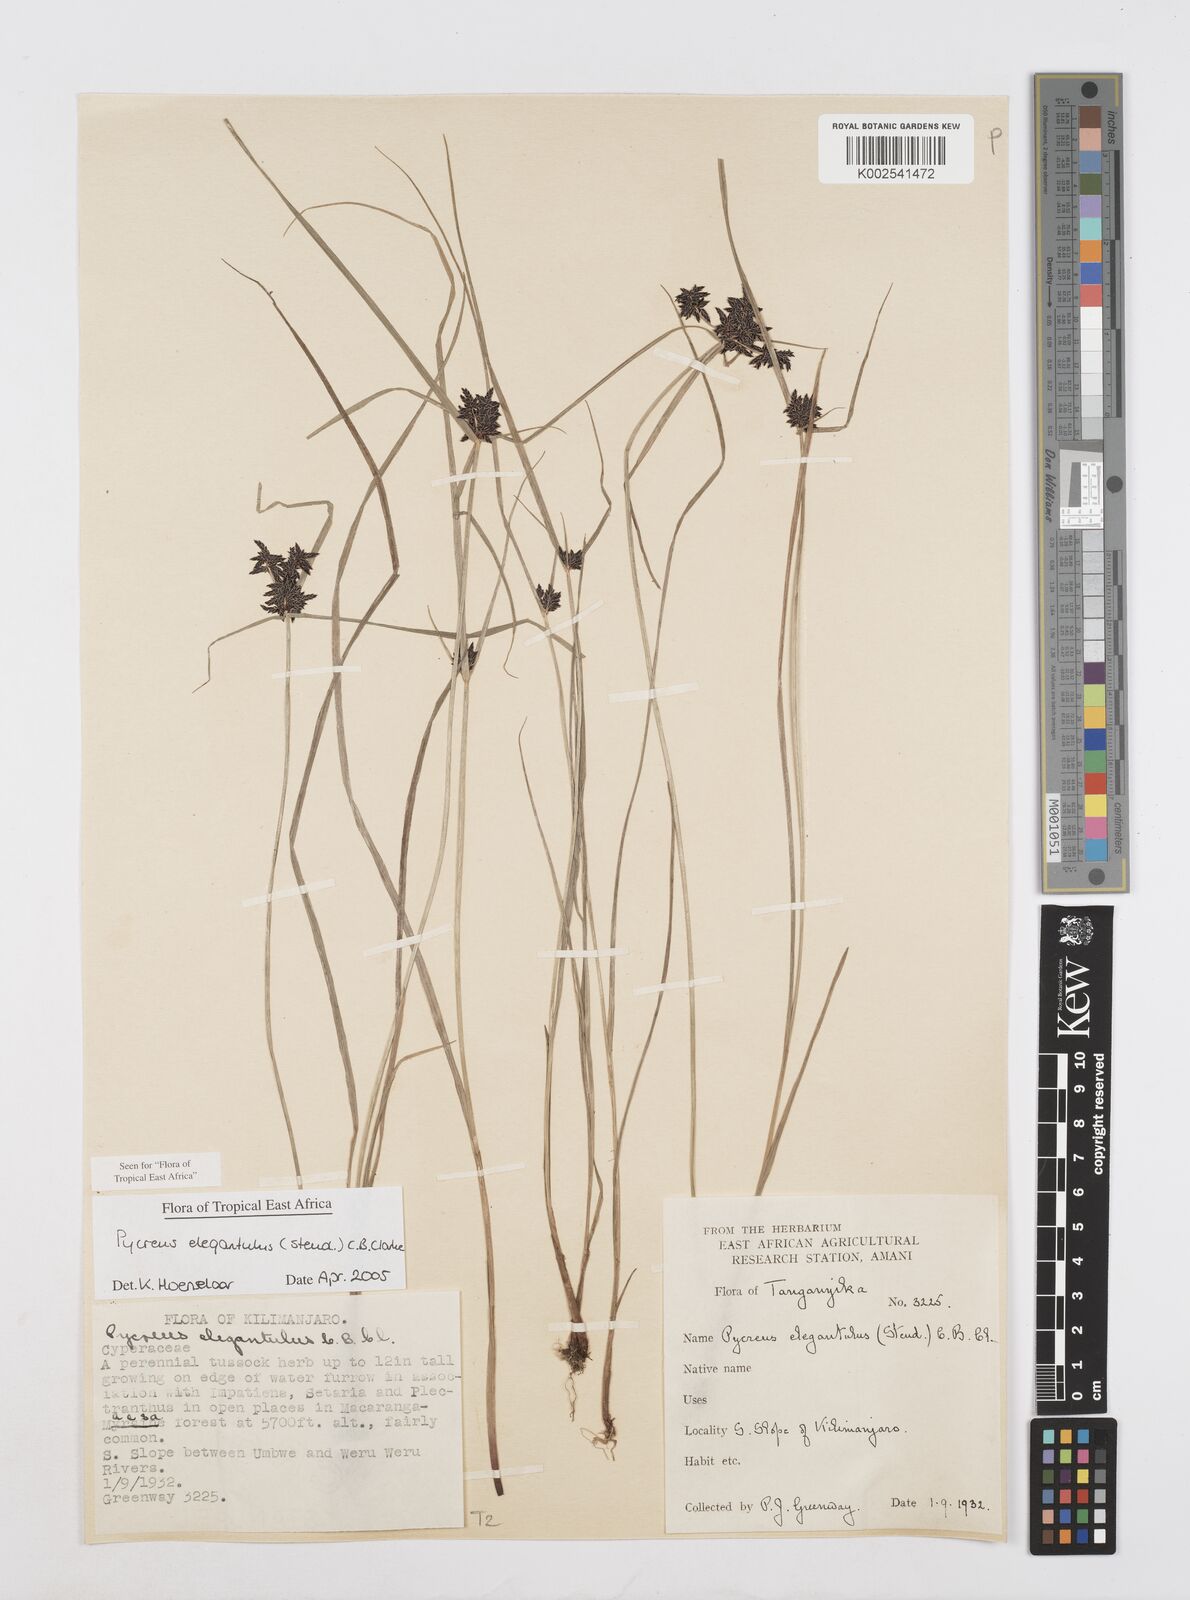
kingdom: Plantae
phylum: Tracheophyta
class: Liliopsida
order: Poales
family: Cyperaceae
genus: Cyperus
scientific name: Cyperus elegantulus
